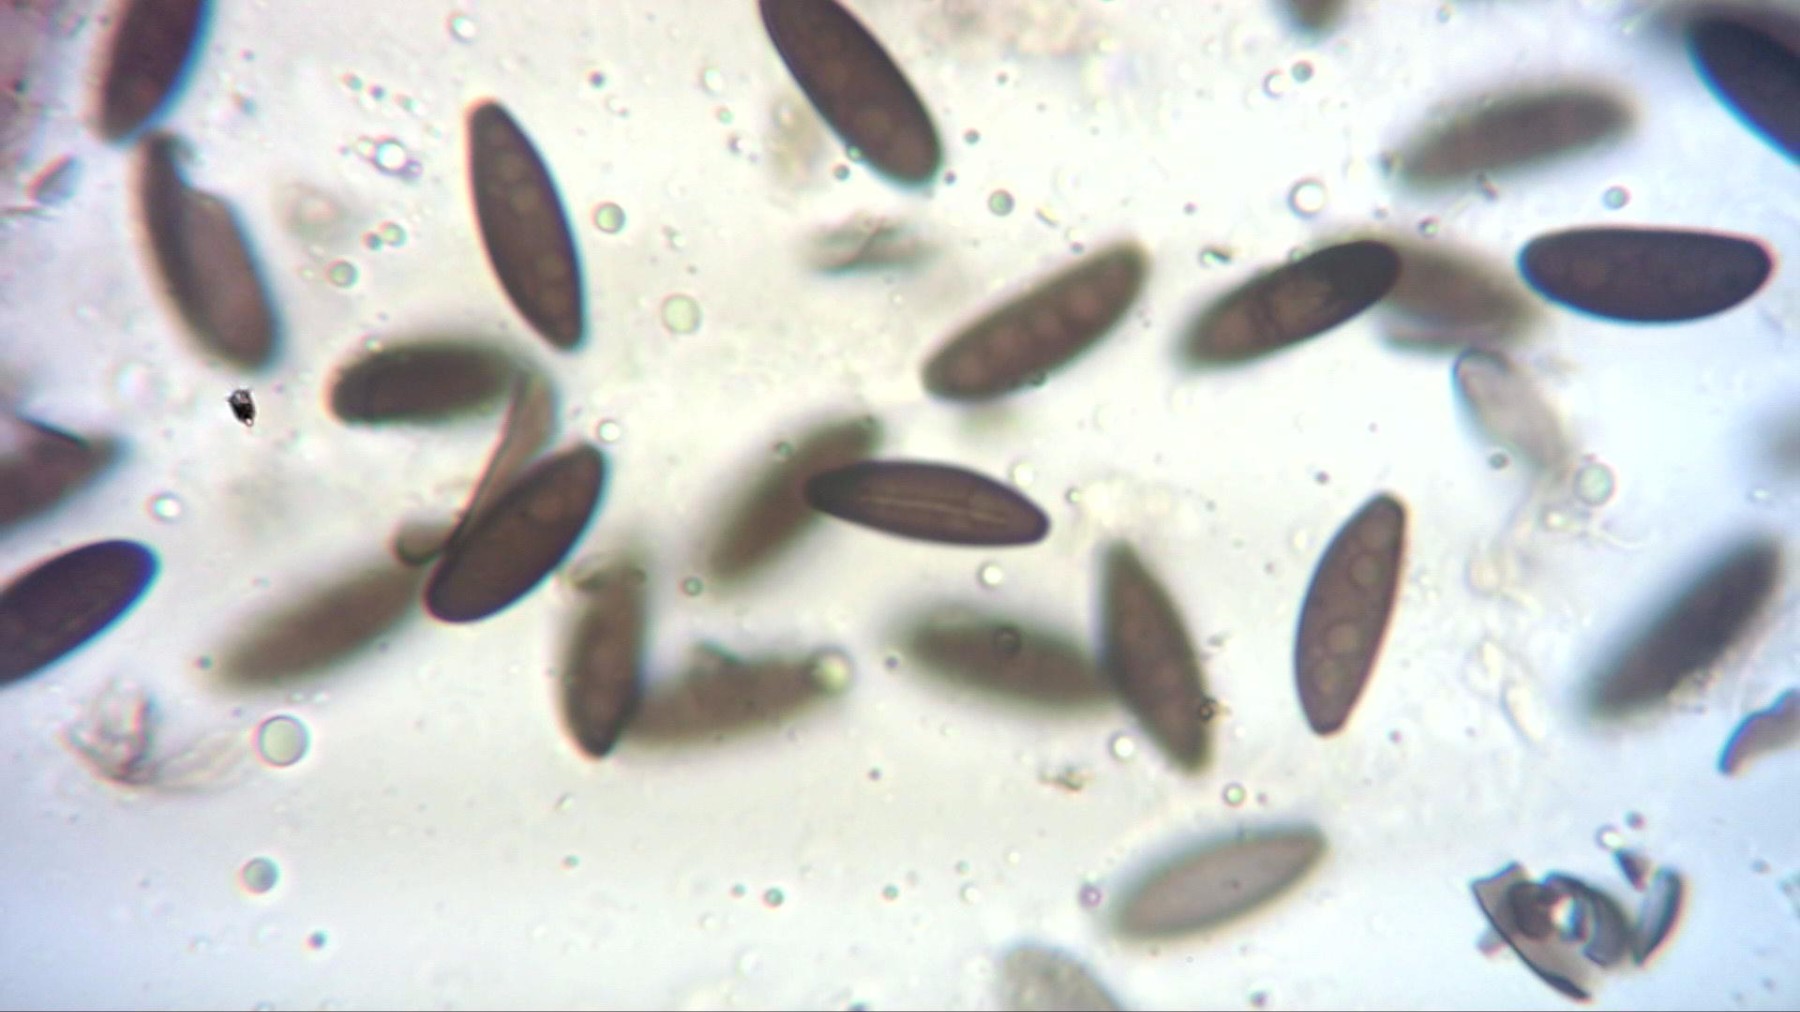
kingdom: Fungi
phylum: Ascomycota
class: Sordariomycetes
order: Xylariales
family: Xylariaceae
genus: Rosellinia
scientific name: Rosellinia
